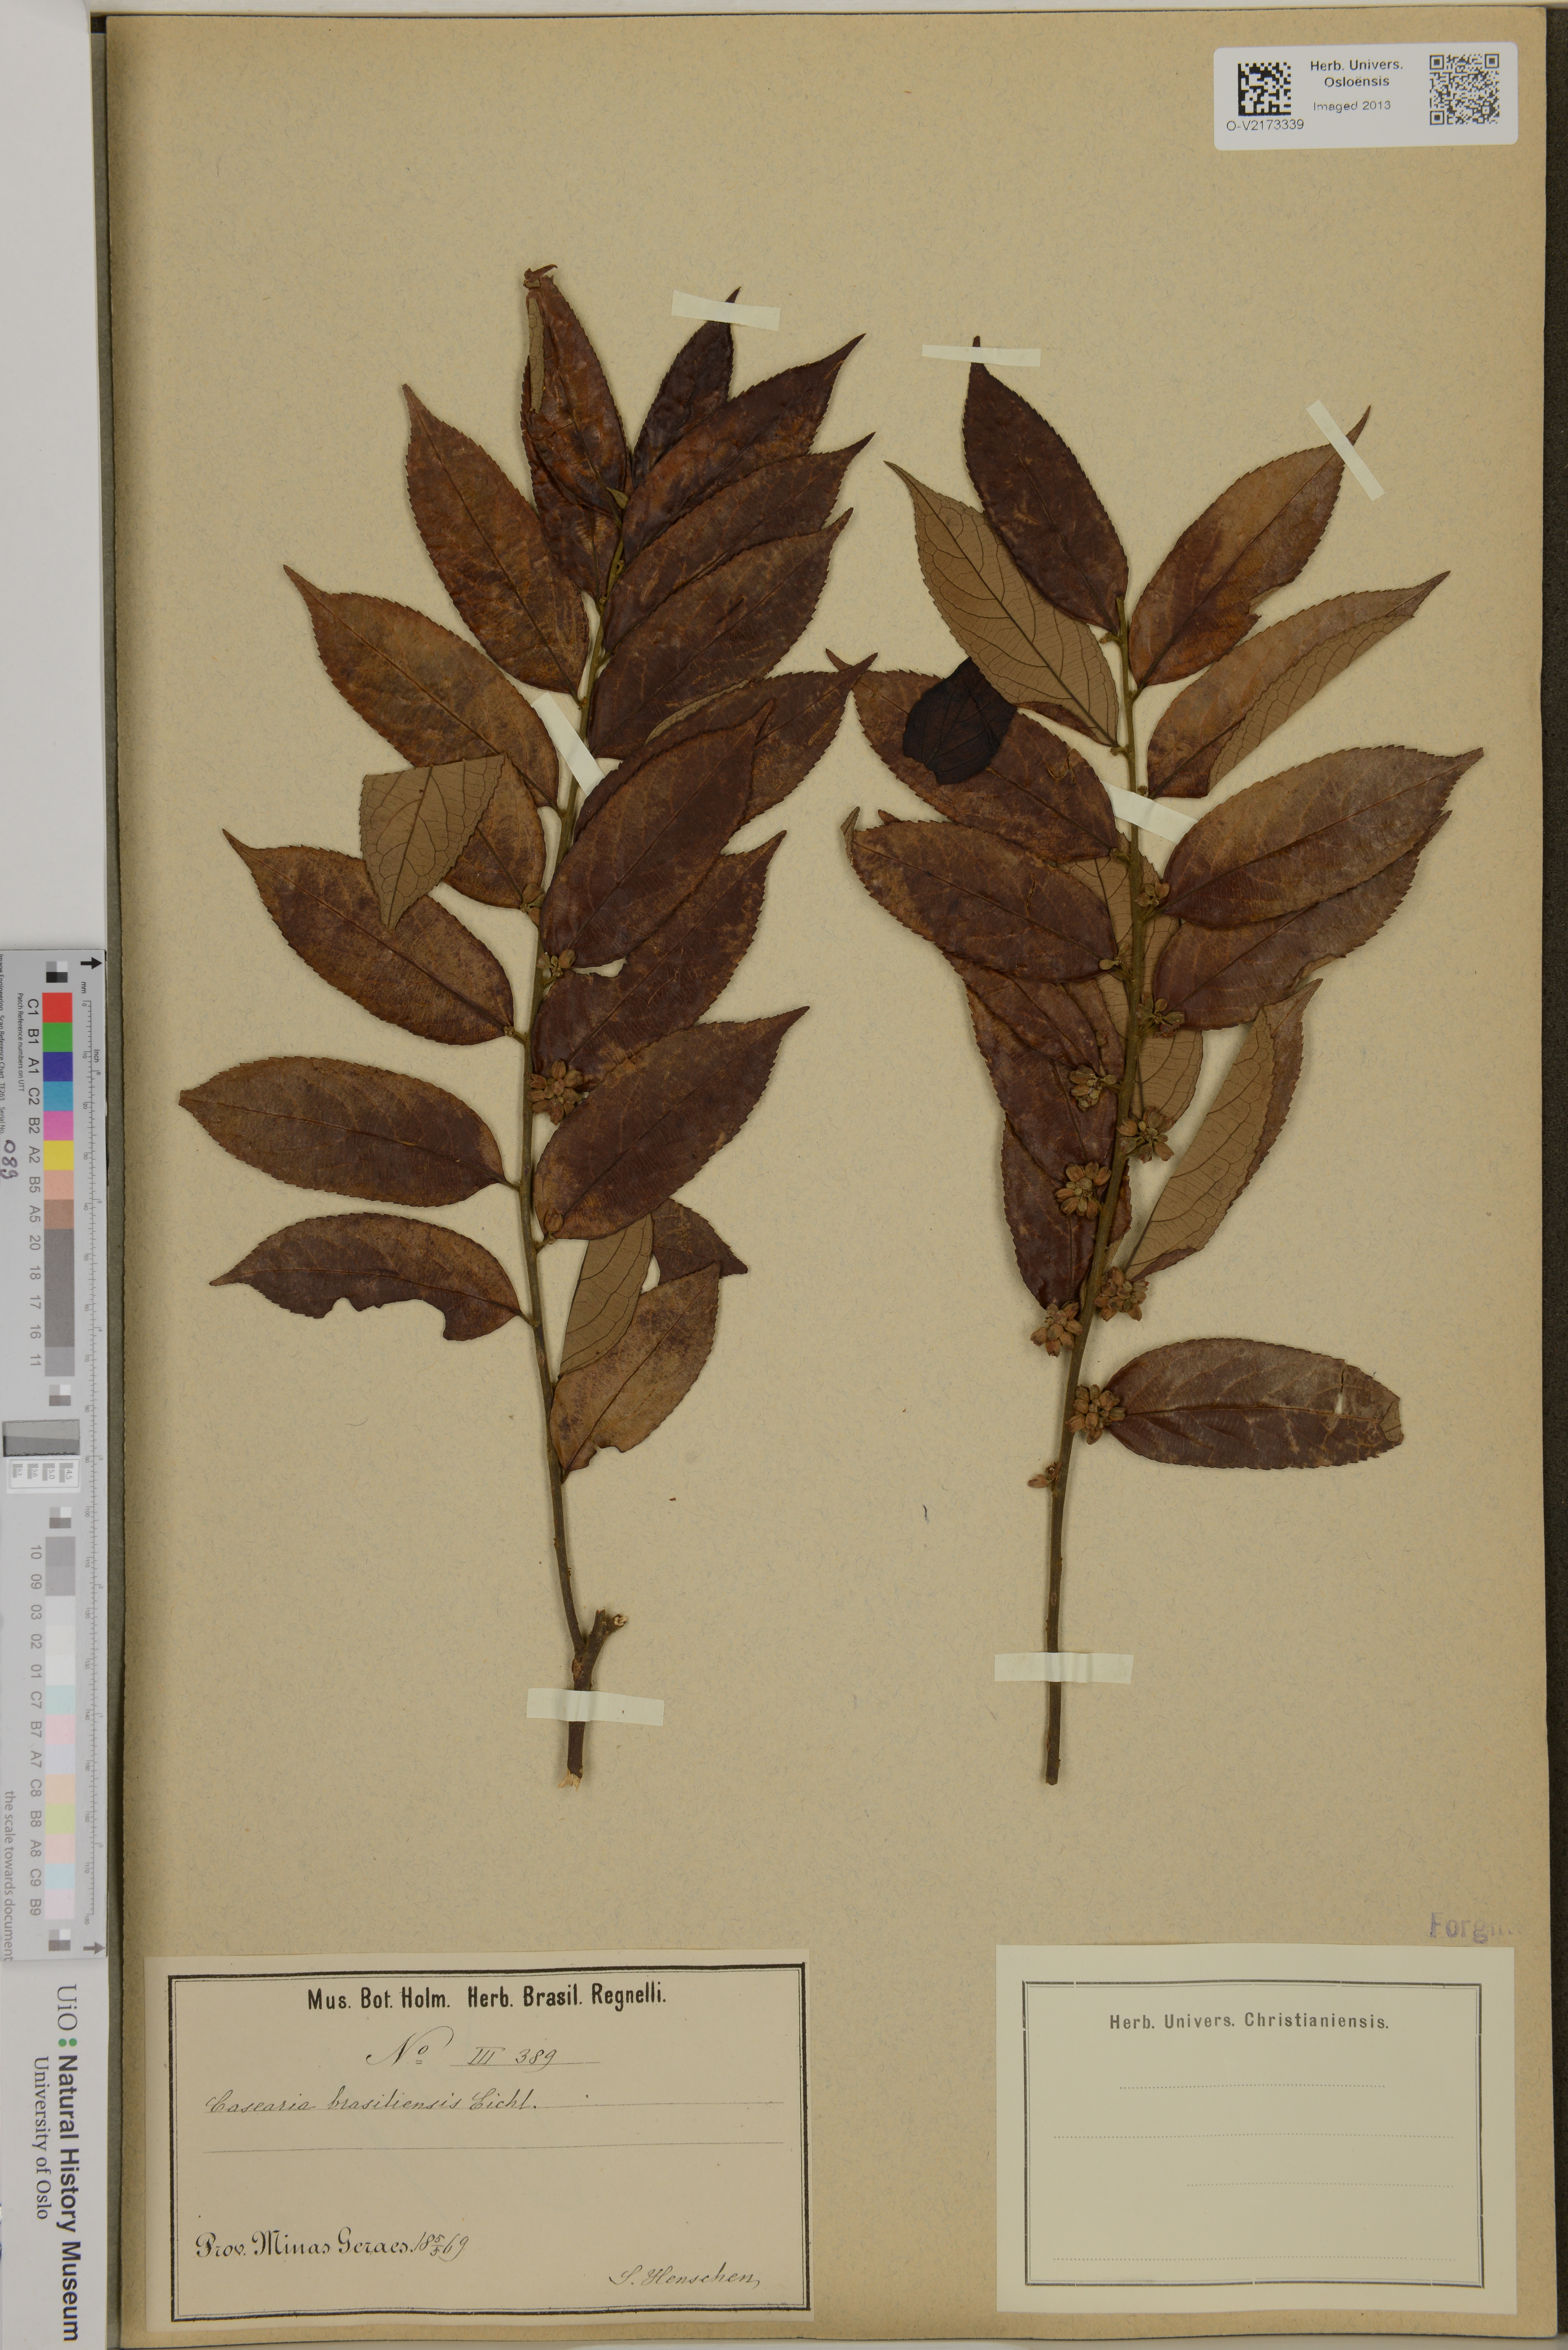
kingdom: Plantae
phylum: Tracheophyta
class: Magnoliopsida
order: Malpighiales
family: Salicaceae
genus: Casearia
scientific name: Casearia arborea
